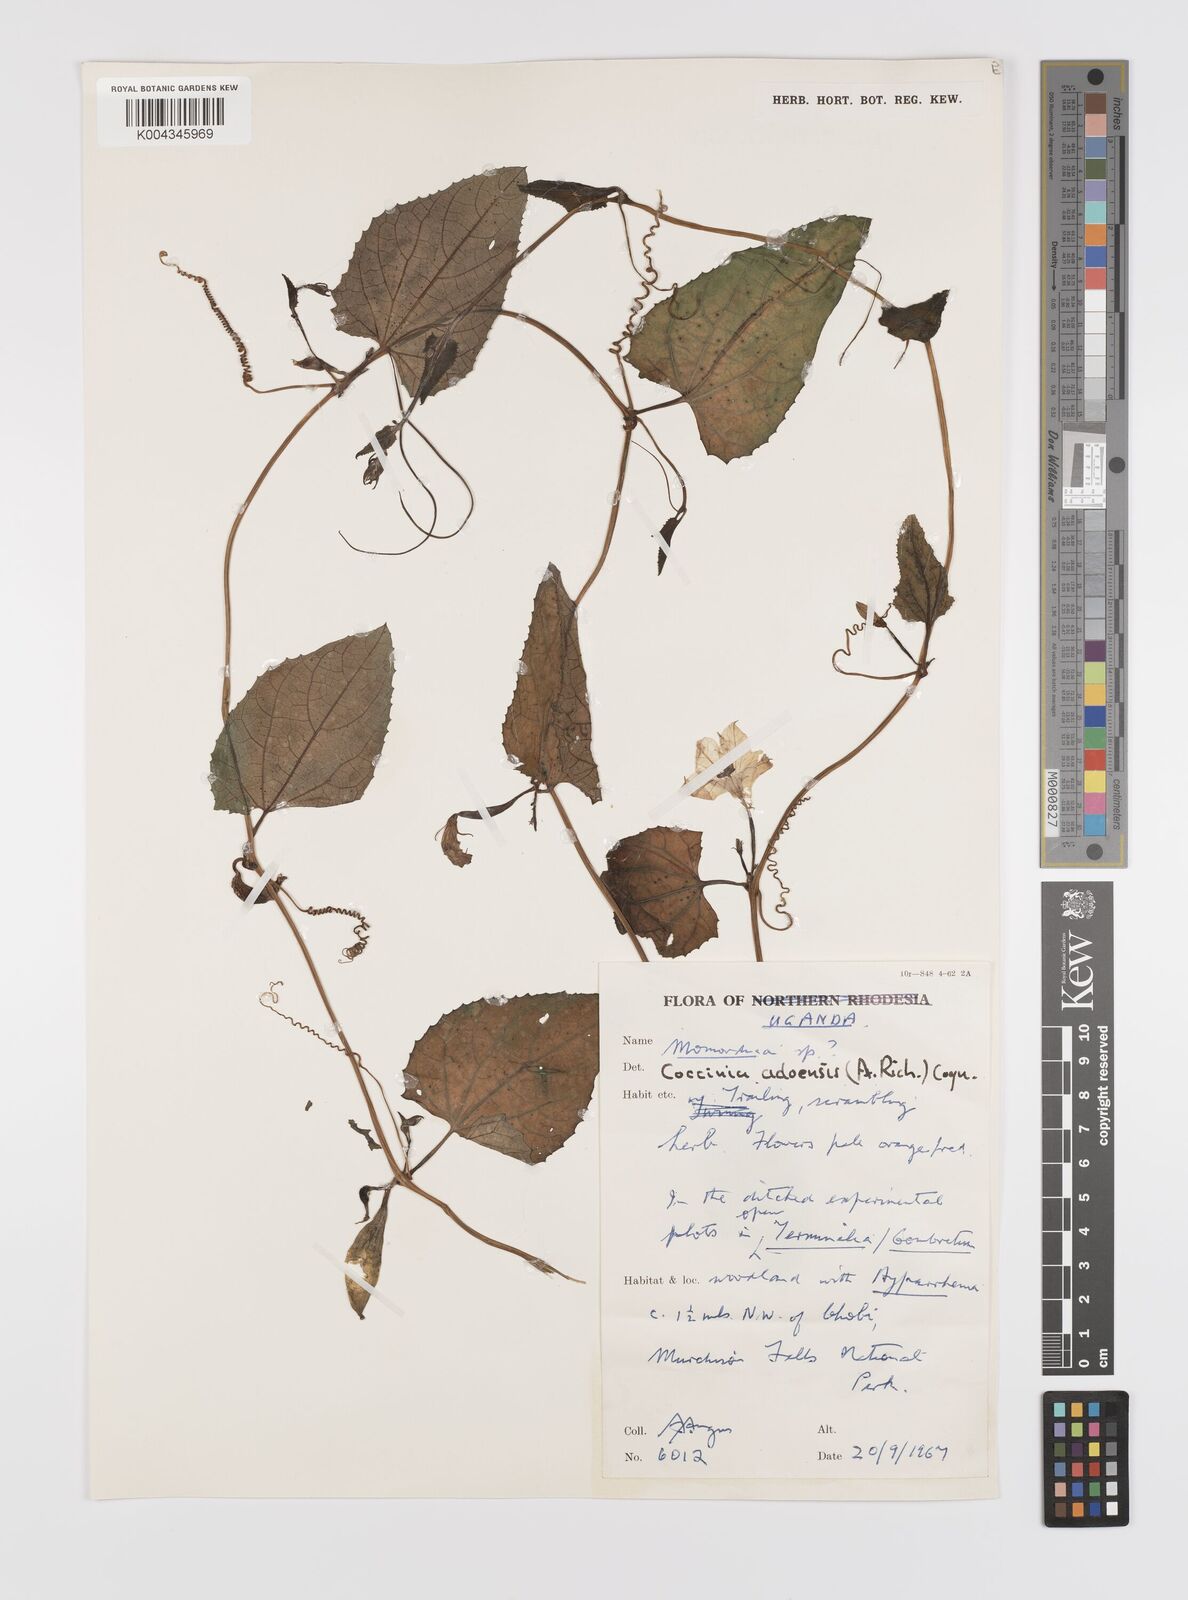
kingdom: Plantae
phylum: Tracheophyta
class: Magnoliopsida
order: Cucurbitales
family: Cucurbitaceae
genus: Coccinia
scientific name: Coccinia adoensis
